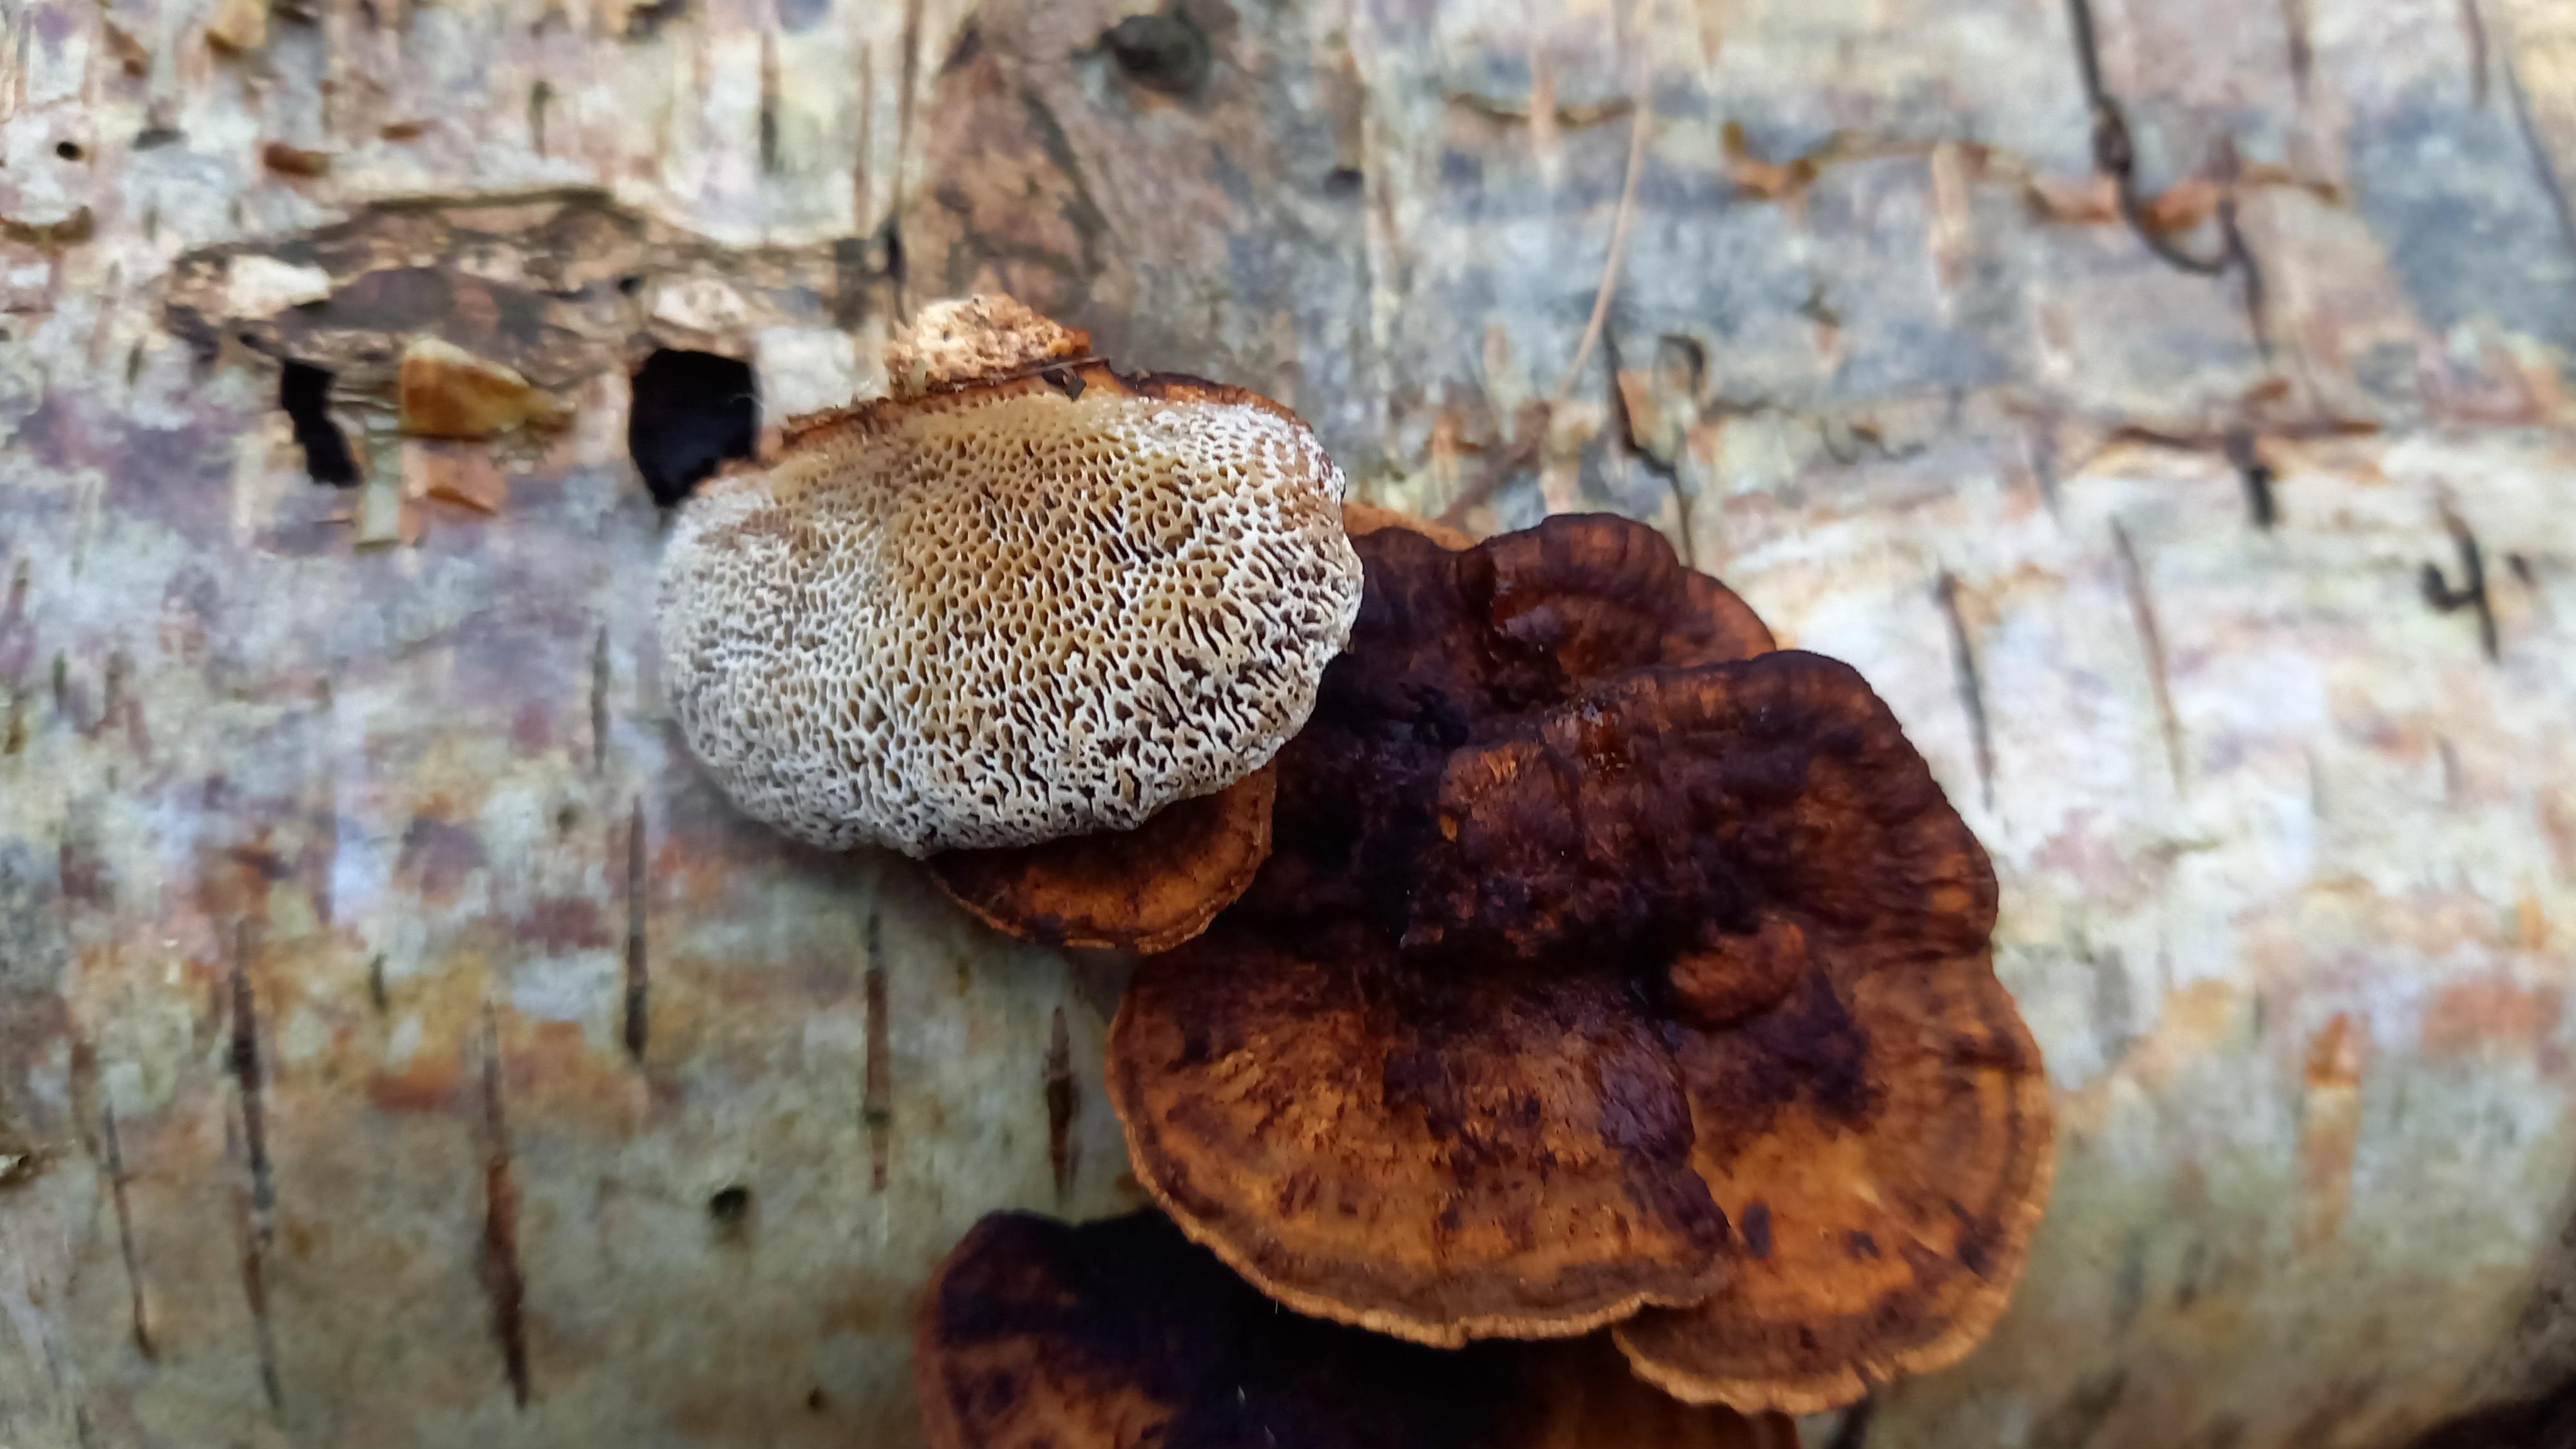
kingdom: Fungi
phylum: Basidiomycota
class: Agaricomycetes
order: Polyporales
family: Polyporaceae
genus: Daedaleopsis
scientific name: Daedaleopsis confragosa
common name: rødmende læderporesvamp
